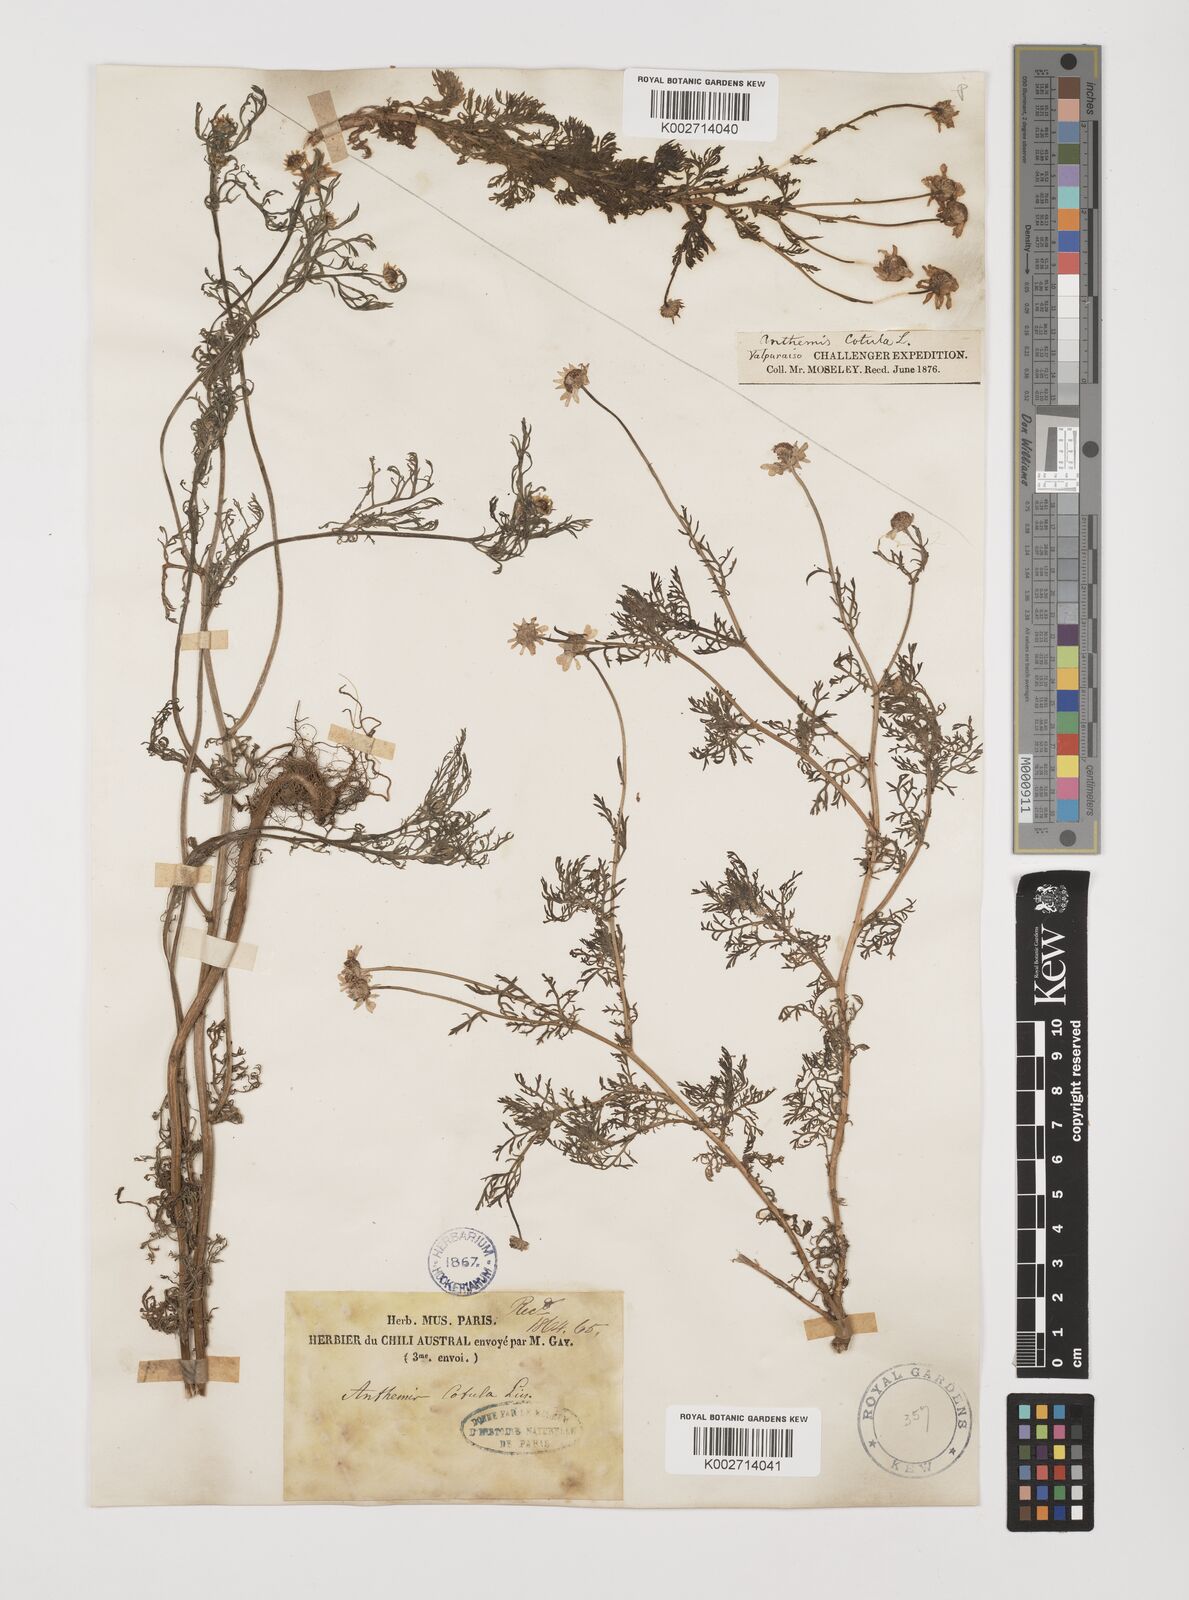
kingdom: Plantae
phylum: Tracheophyta
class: Magnoliopsida
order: Asterales
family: Asteraceae
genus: Anthemis
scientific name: Anthemis cotula
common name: Stinking chamomile
